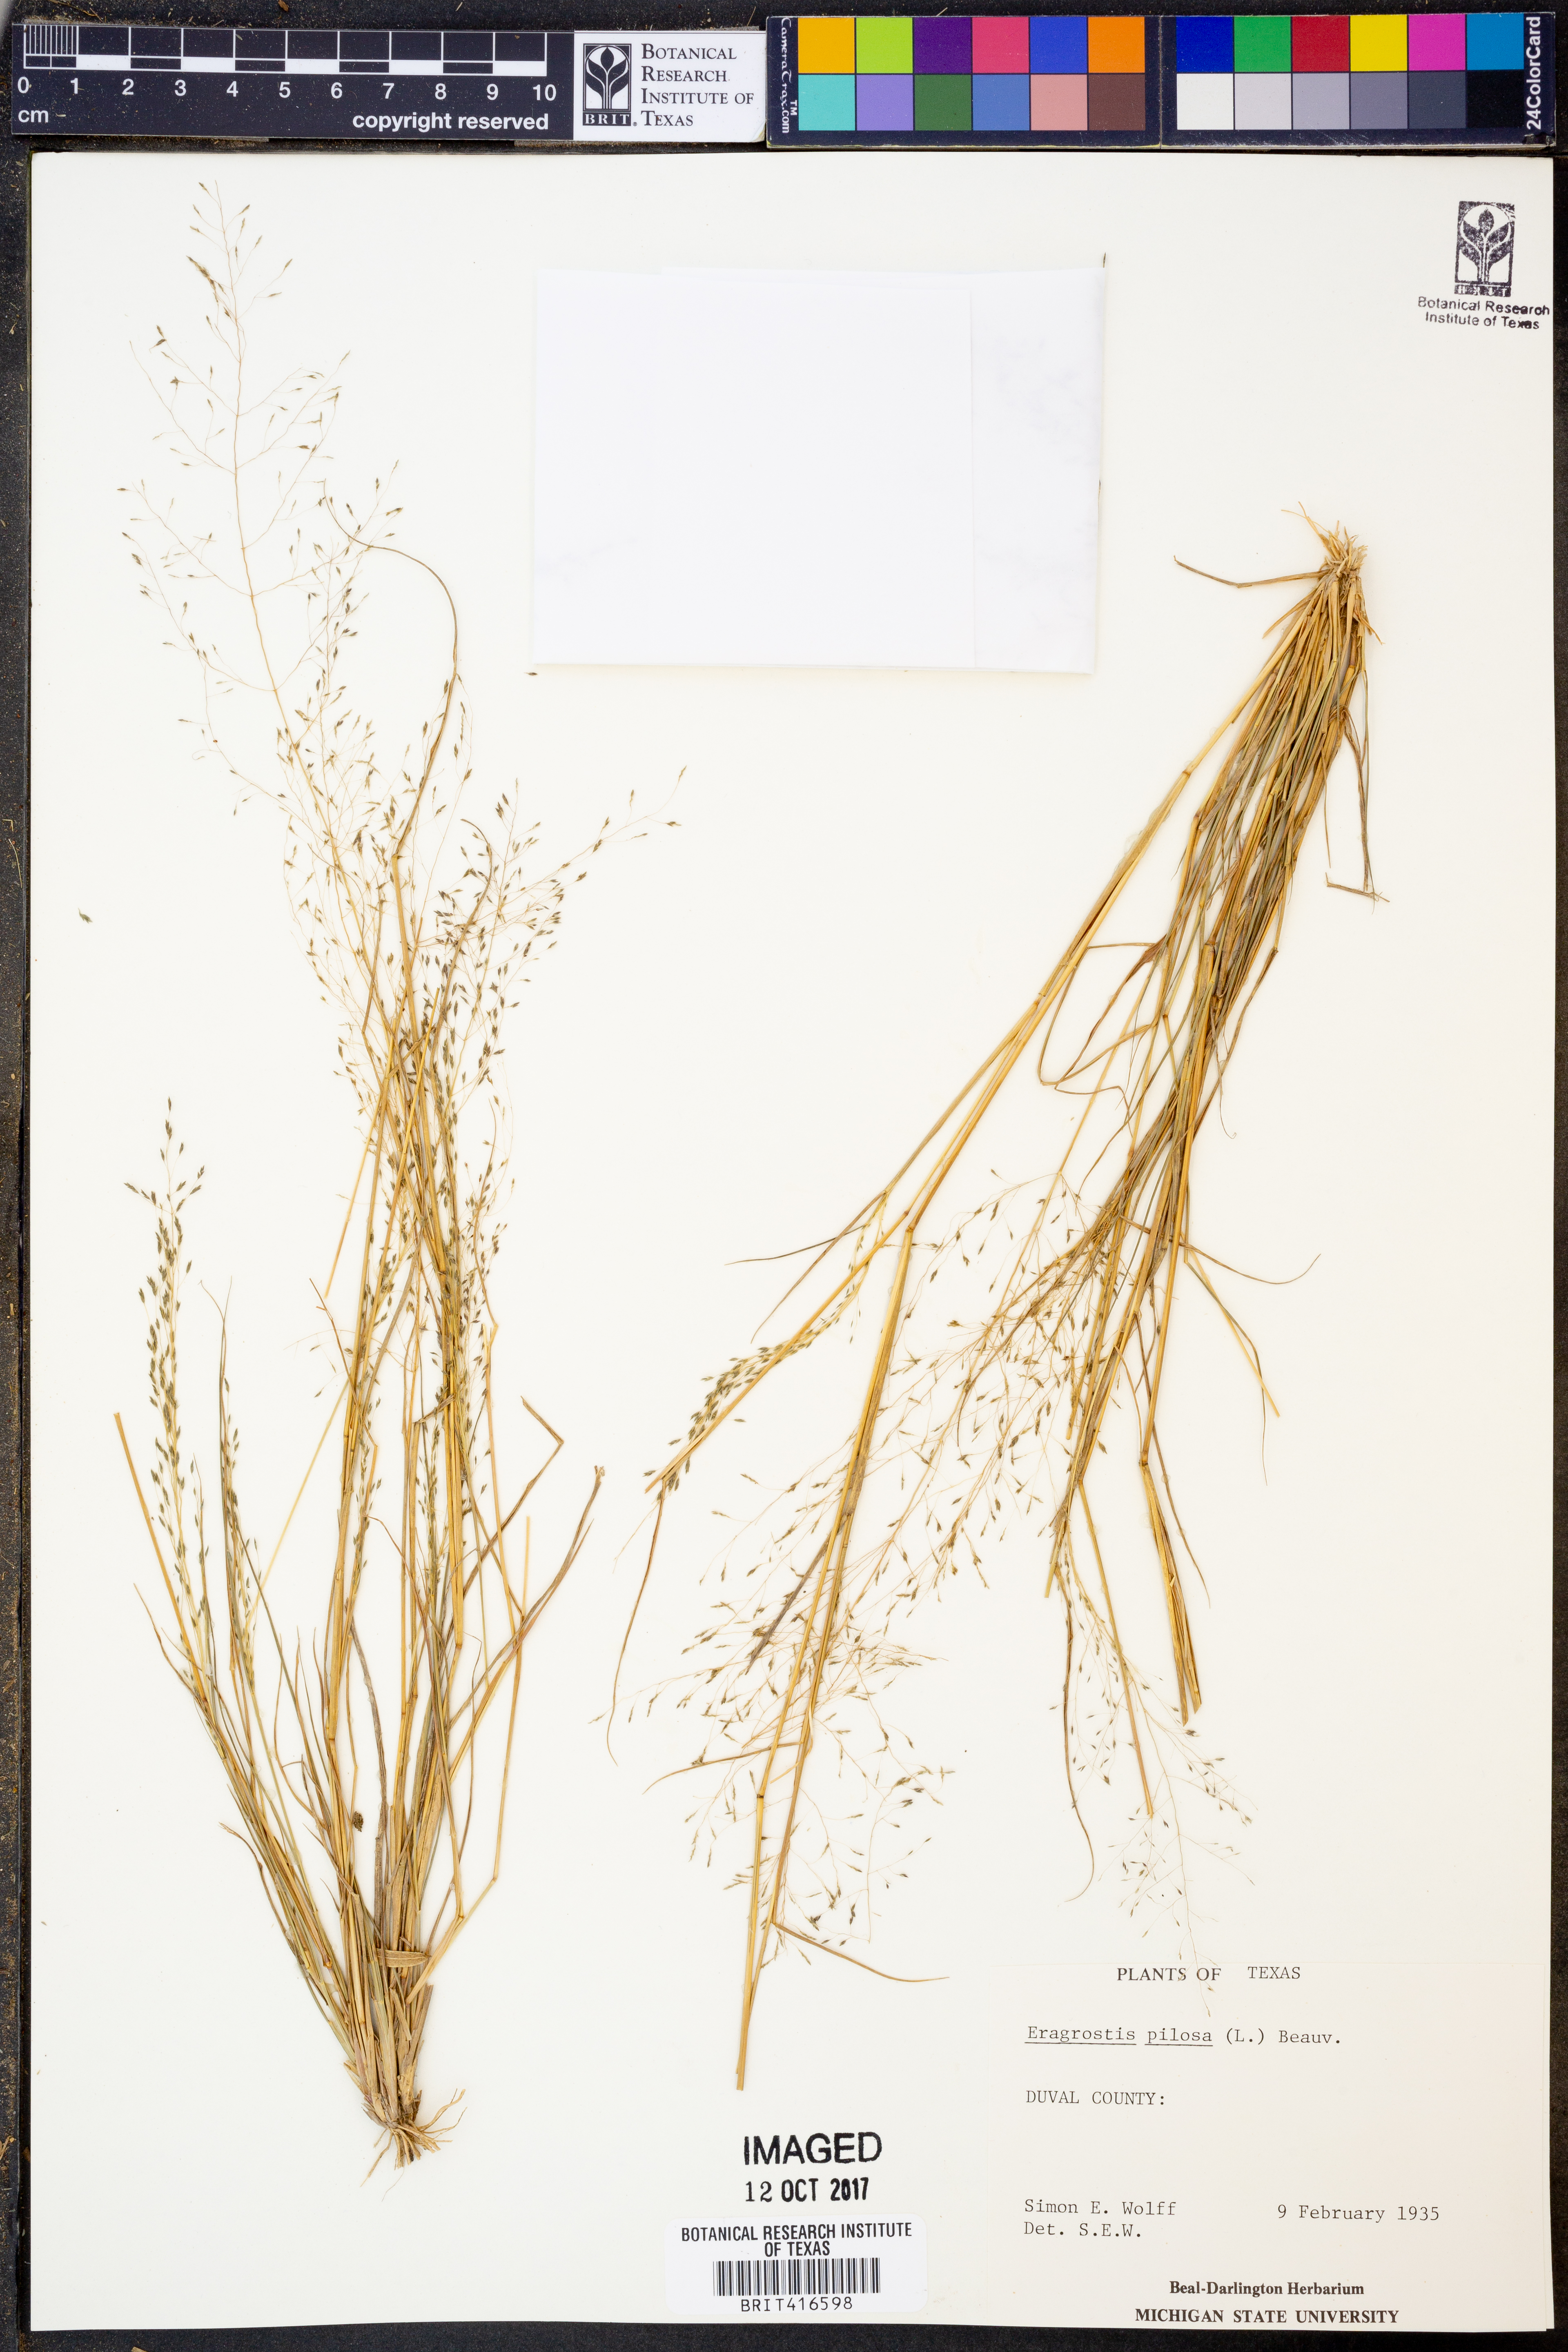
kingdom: Plantae
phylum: Tracheophyta
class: Liliopsida
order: Poales
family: Poaceae
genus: Eragrostis
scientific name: Eragrostis pilosa
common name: Indian lovegrass
